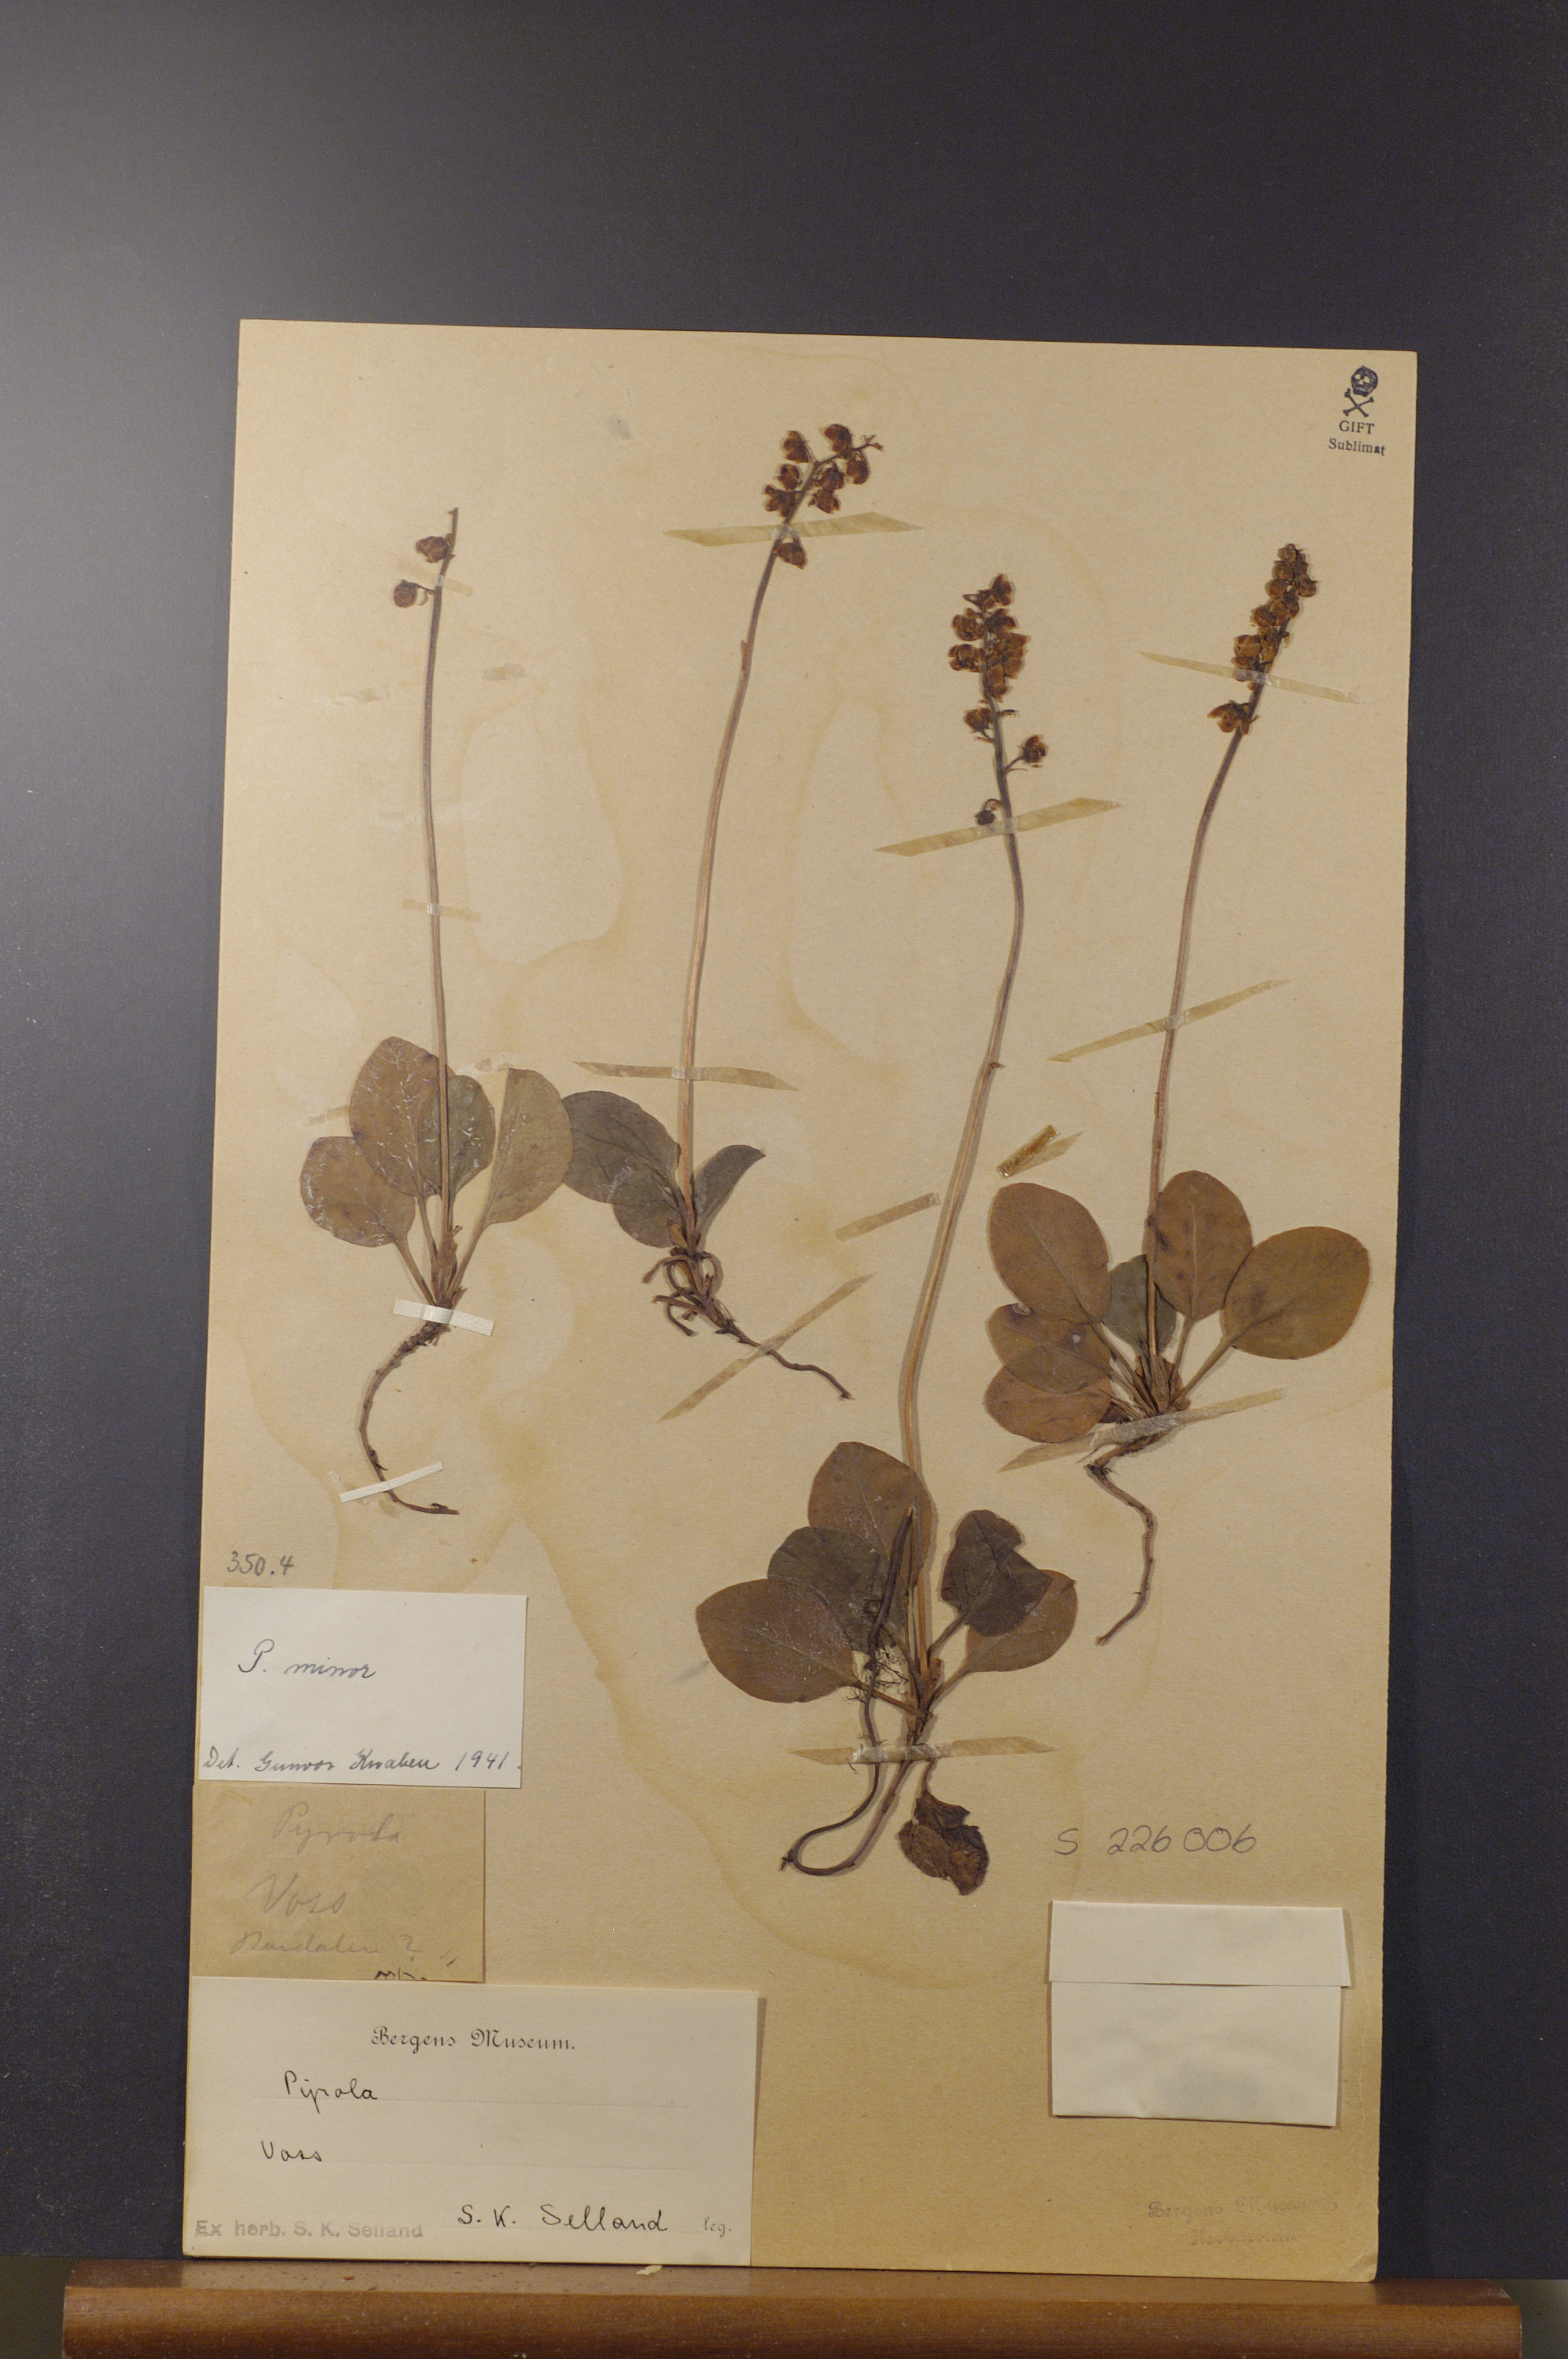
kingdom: Plantae
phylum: Tracheophyta
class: Magnoliopsida
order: Ericales
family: Ericaceae
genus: Pyrola
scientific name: Pyrola minor
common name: Common wintergreen
